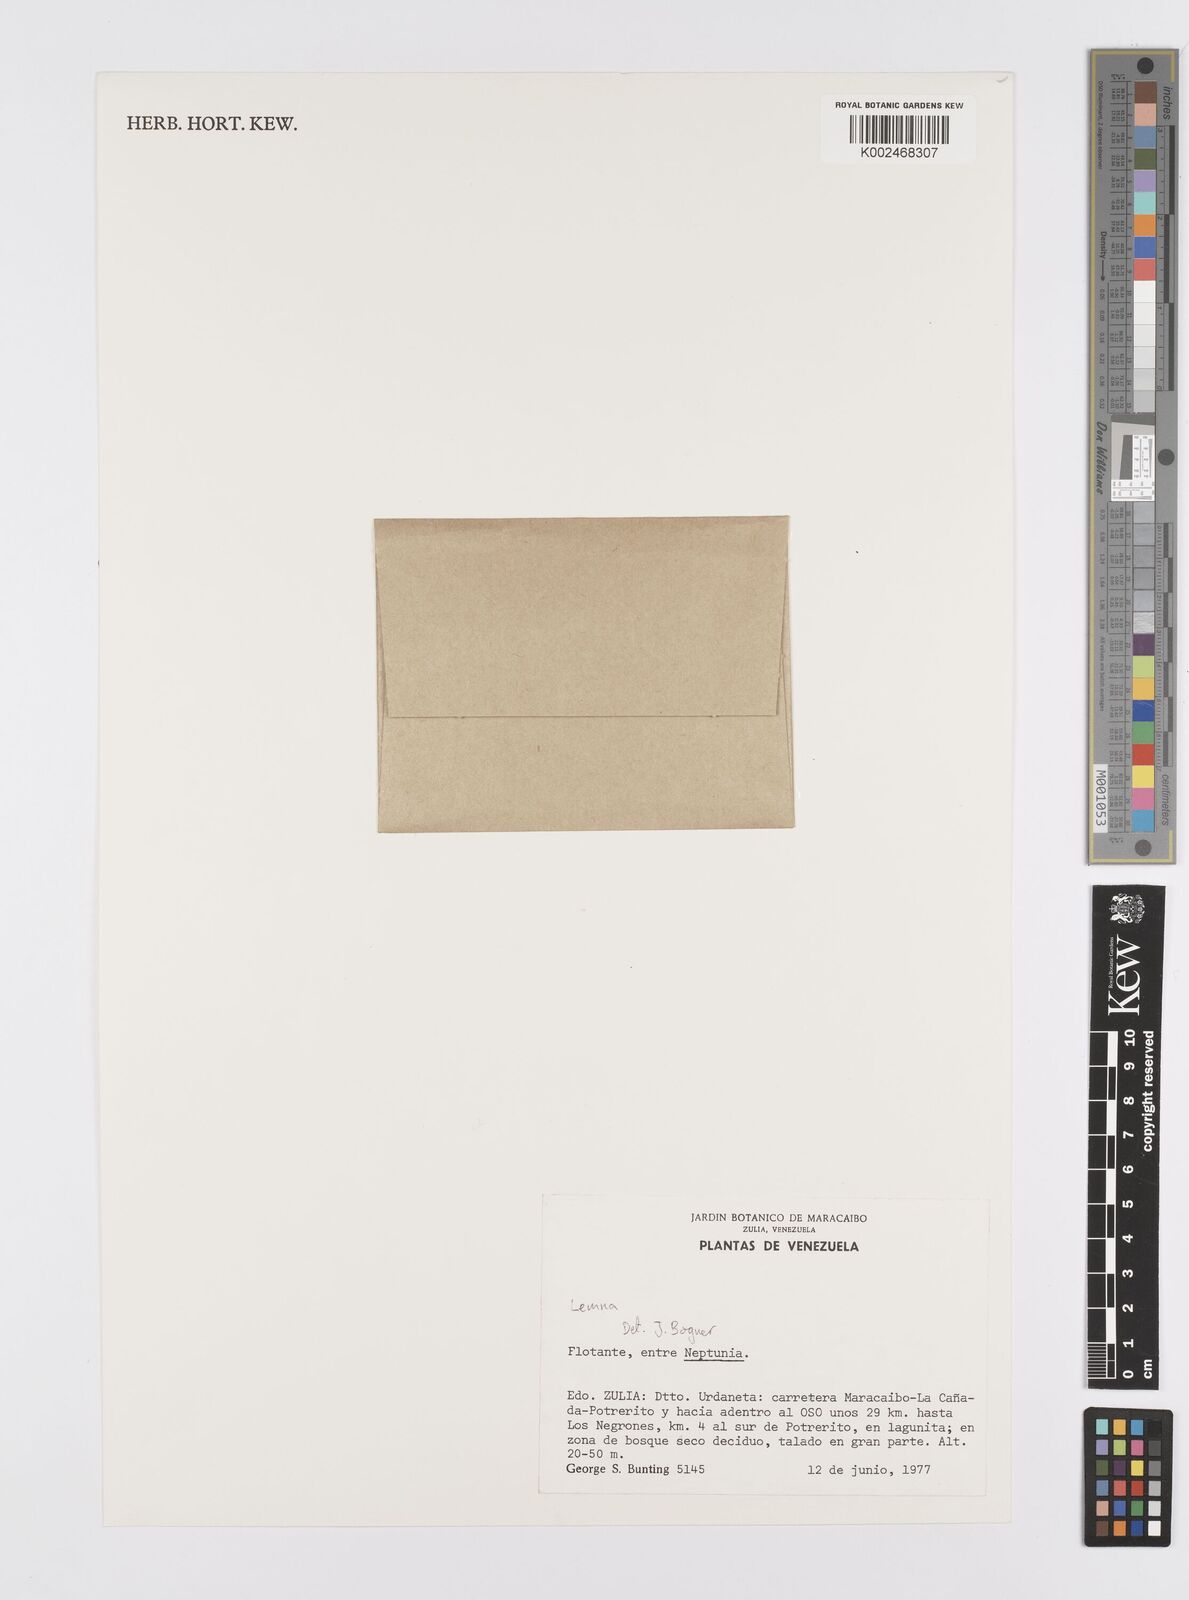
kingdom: Plantae
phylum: Tracheophyta
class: Liliopsida
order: Alismatales
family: Araceae
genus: Lemna
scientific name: Lemna
